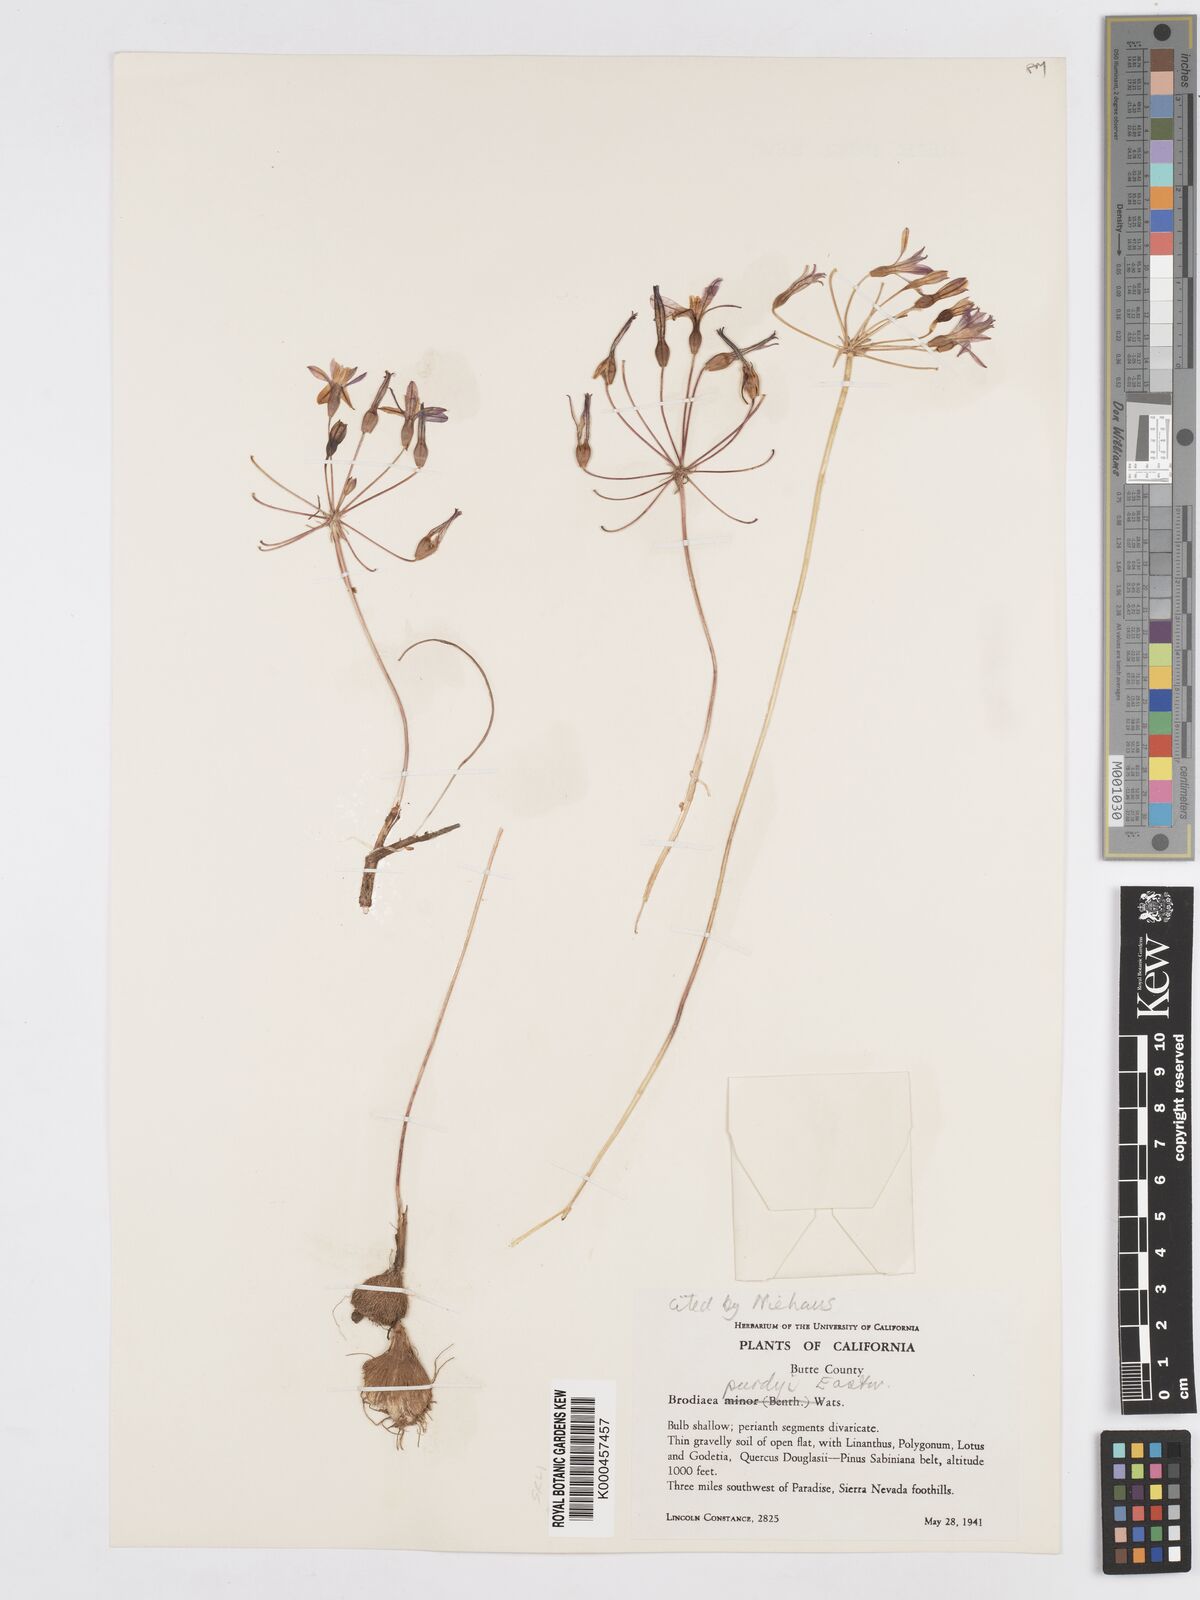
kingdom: Plantae
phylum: Tracheophyta
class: Liliopsida
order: Asparagales
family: Asparagaceae
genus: Brodiaea
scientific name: Brodiaea minor
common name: Dwarf brodiaea
